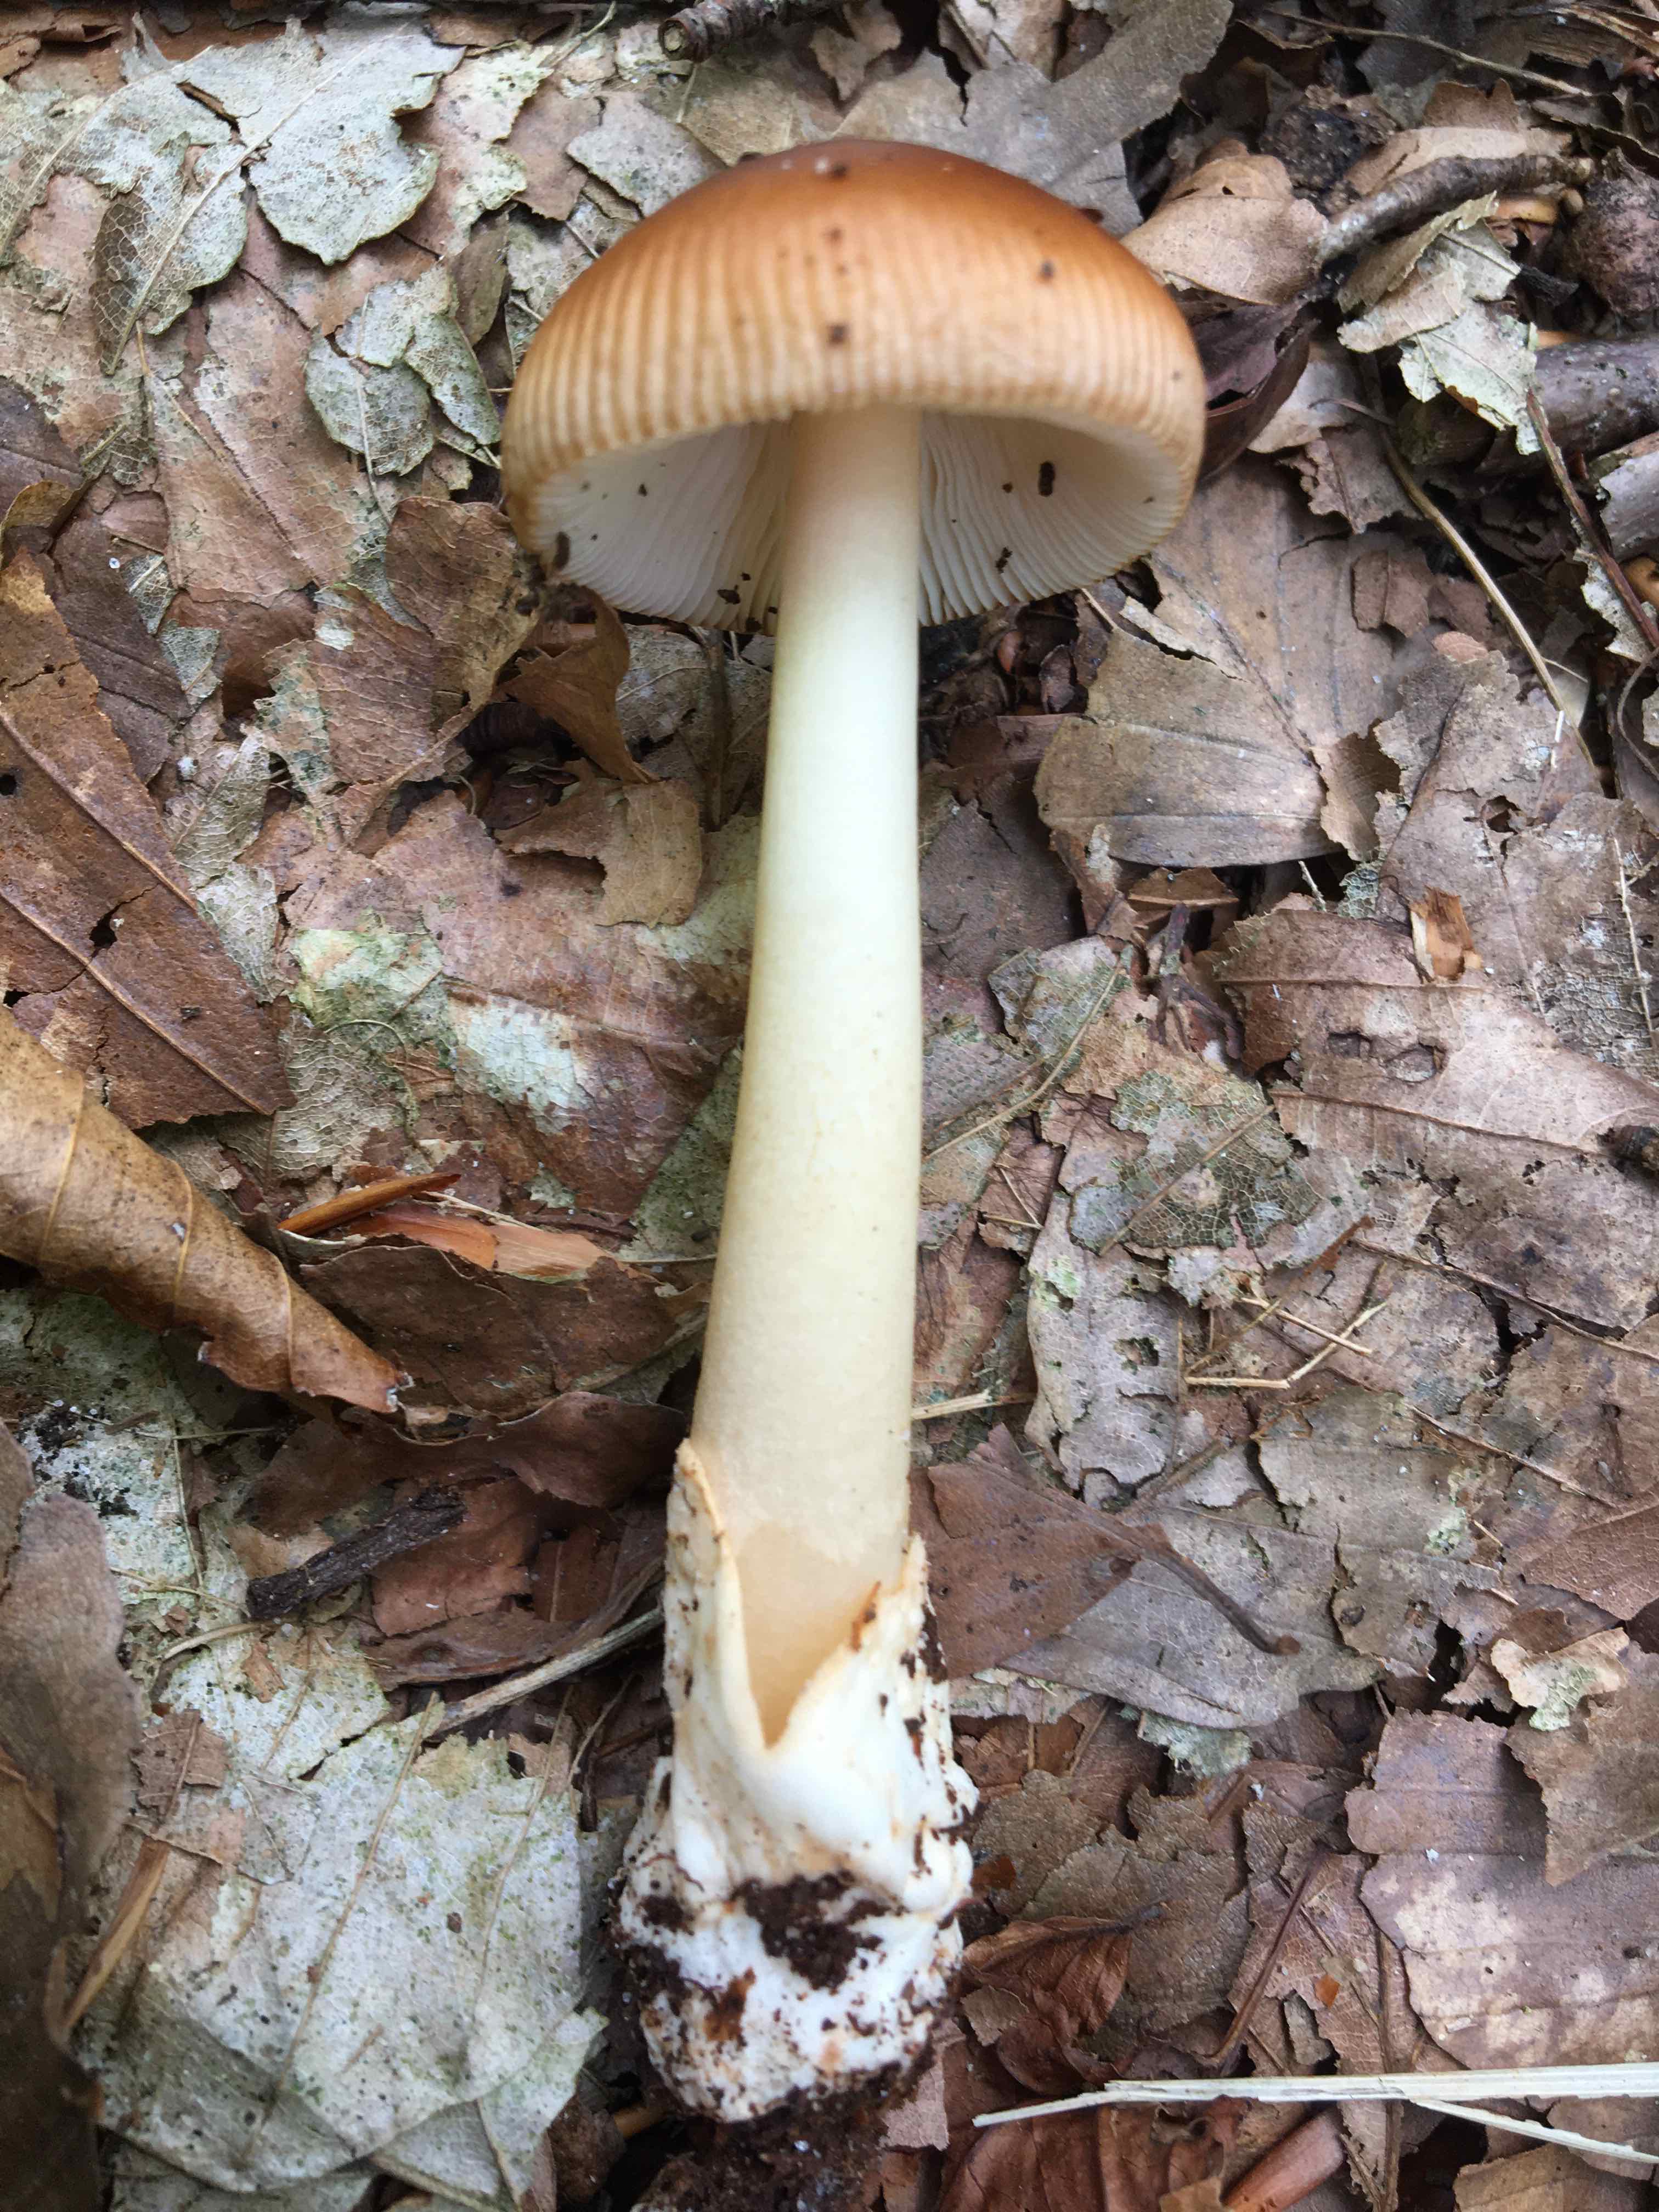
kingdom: Fungi
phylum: Basidiomycota
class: Agaricomycetes
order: Agaricales
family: Amanitaceae
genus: Amanita
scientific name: Amanita fulva
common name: brun kam-fluesvamp
